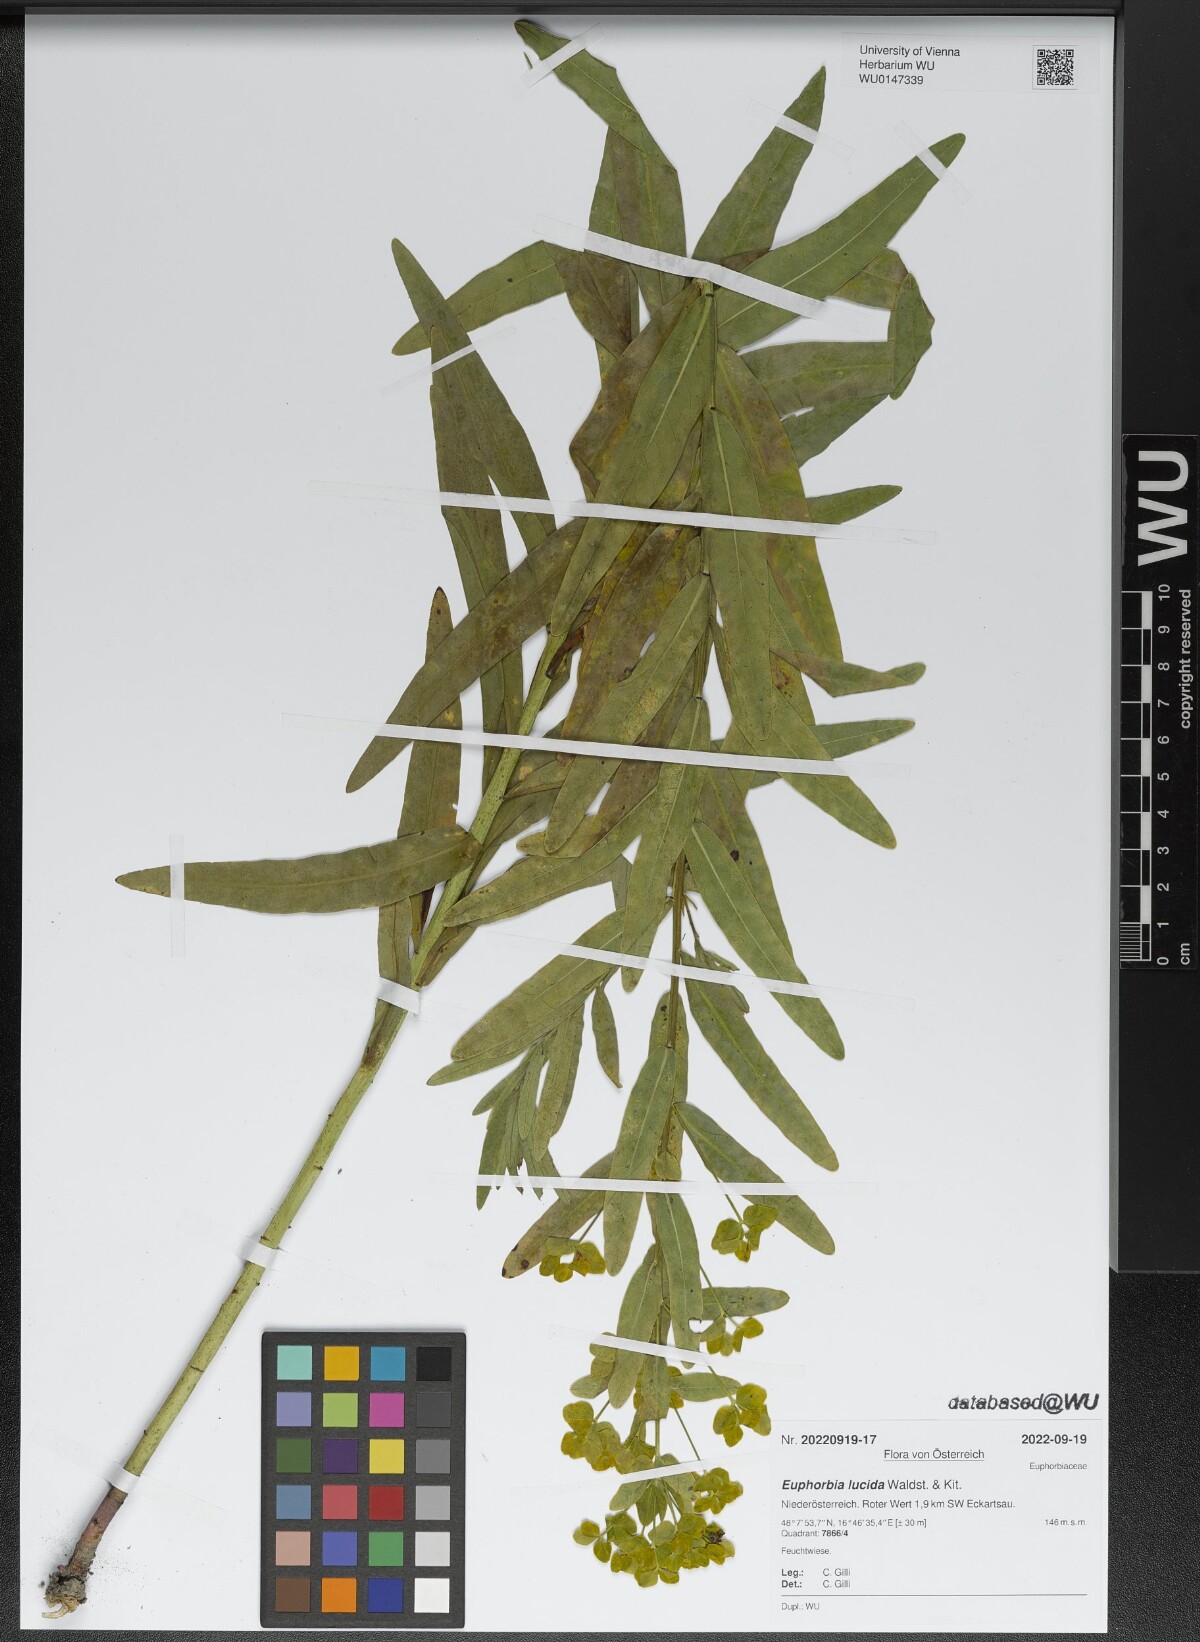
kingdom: Plantae
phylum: Tracheophyta
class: Magnoliopsida
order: Malpighiales
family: Euphorbiaceae
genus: Euphorbia
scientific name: Euphorbia lucida
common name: Shining spurge
